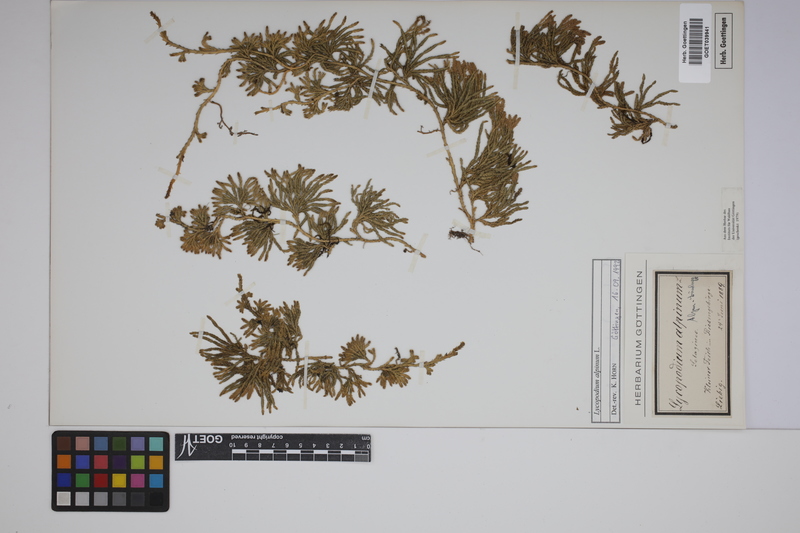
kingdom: Plantae
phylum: Tracheophyta
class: Lycopodiopsida
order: Lycopodiales
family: Lycopodiaceae
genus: Diphasiastrum
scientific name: Diphasiastrum alpinum
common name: Alpine clubmoss
